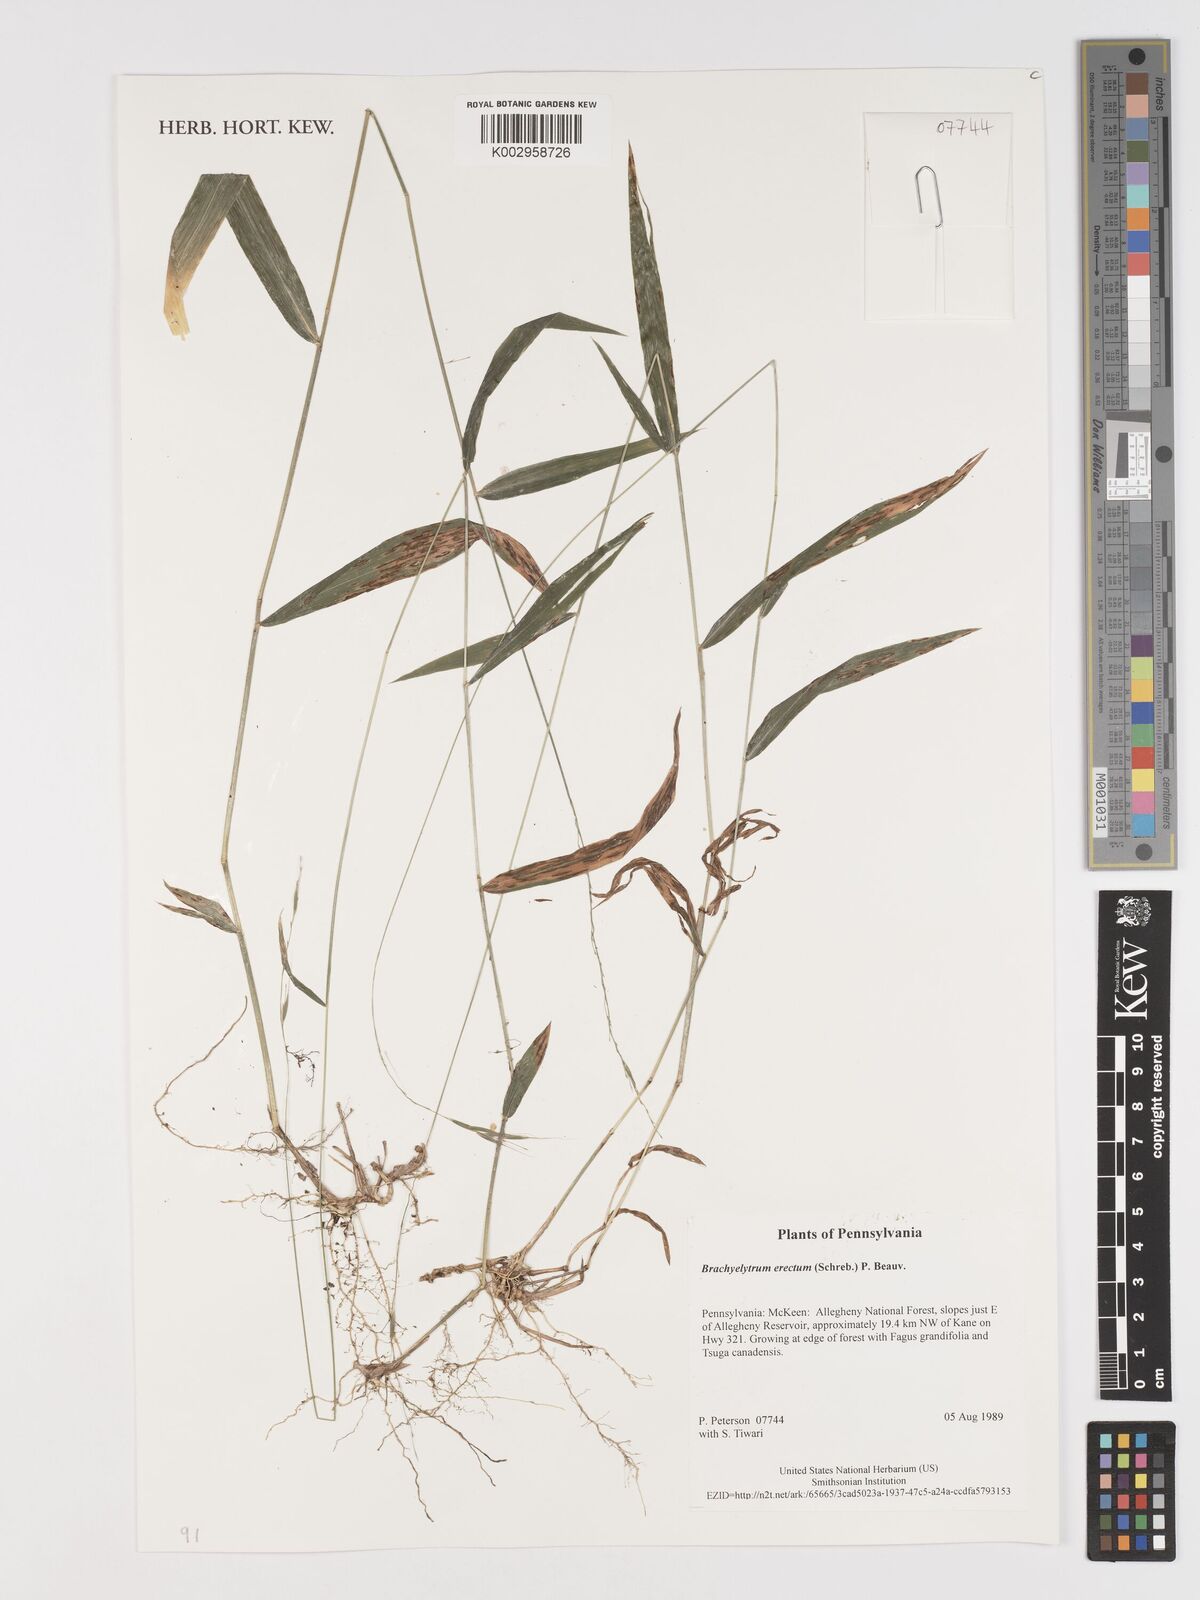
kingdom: Plantae
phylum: Tracheophyta
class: Liliopsida
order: Poales
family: Poaceae
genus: Brachyelytrum
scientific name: Brachyelytrum erectum
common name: Bearded shorthusk
